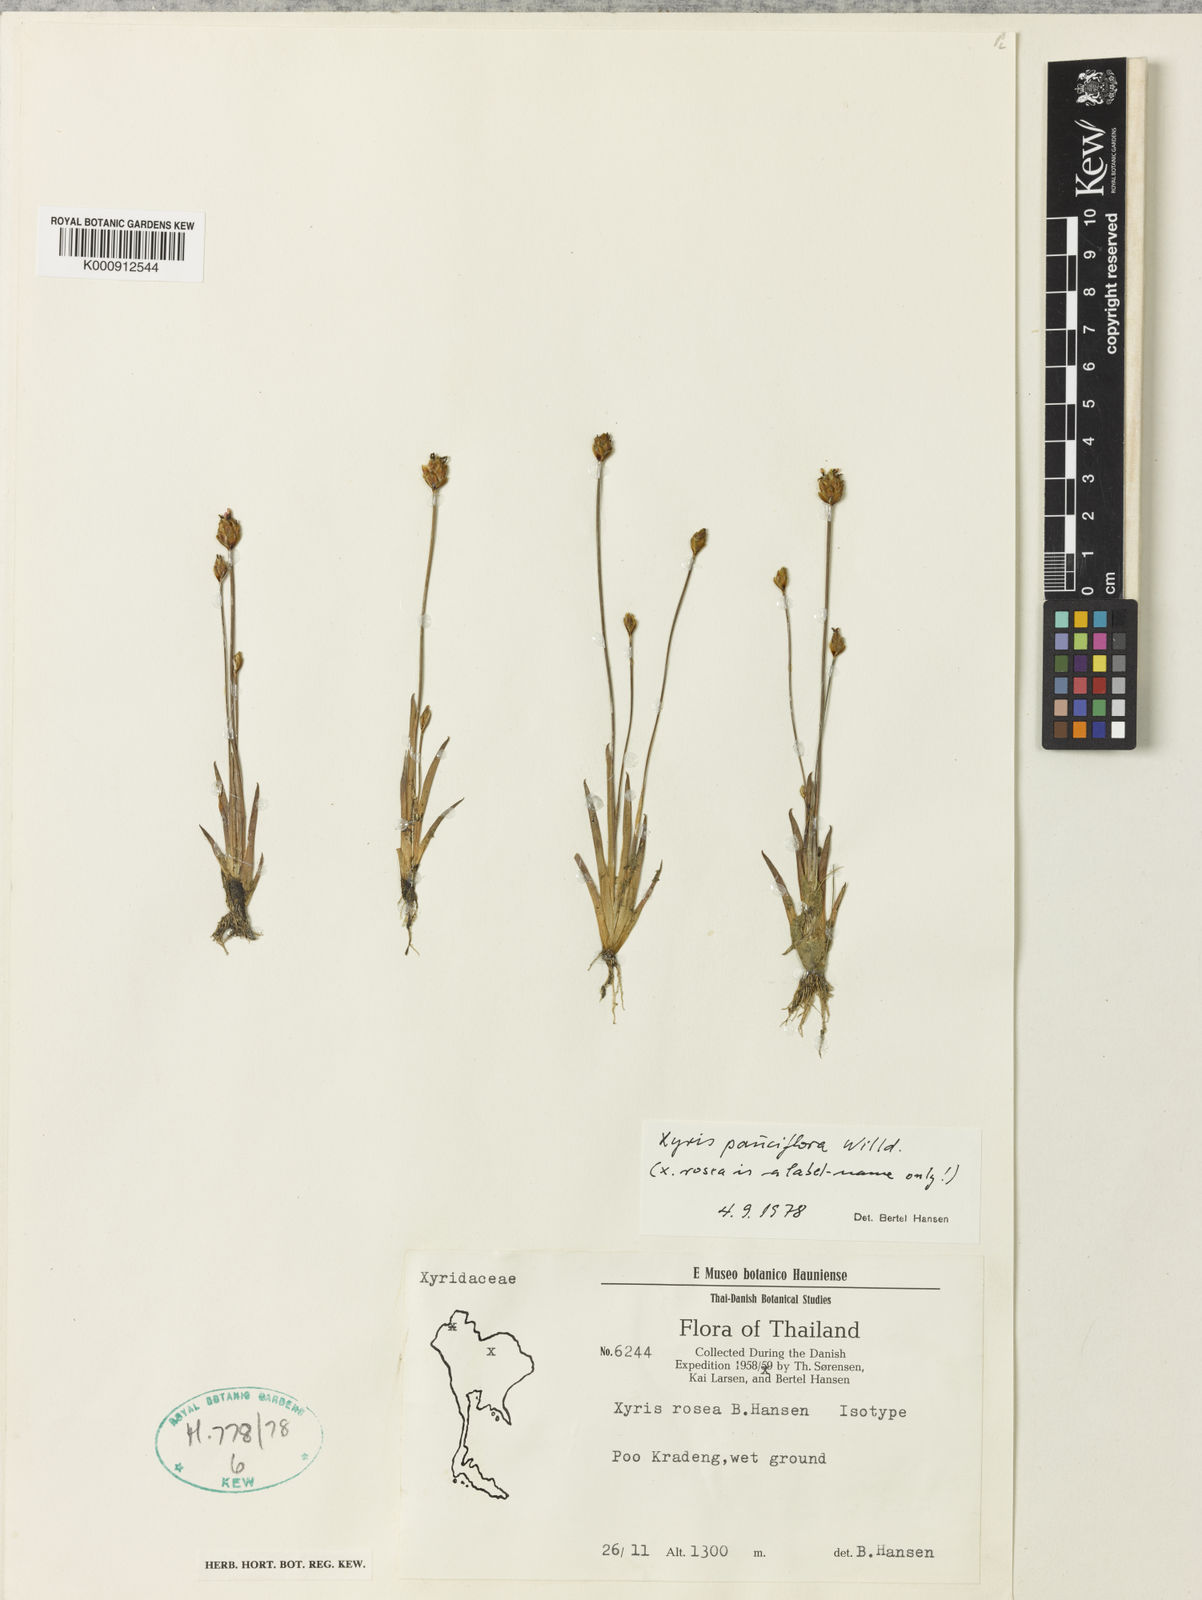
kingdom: Plantae
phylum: Tracheophyta
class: Liliopsida
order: Poales
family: Xyridaceae
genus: Xyris
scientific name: Xyris pauciflora
